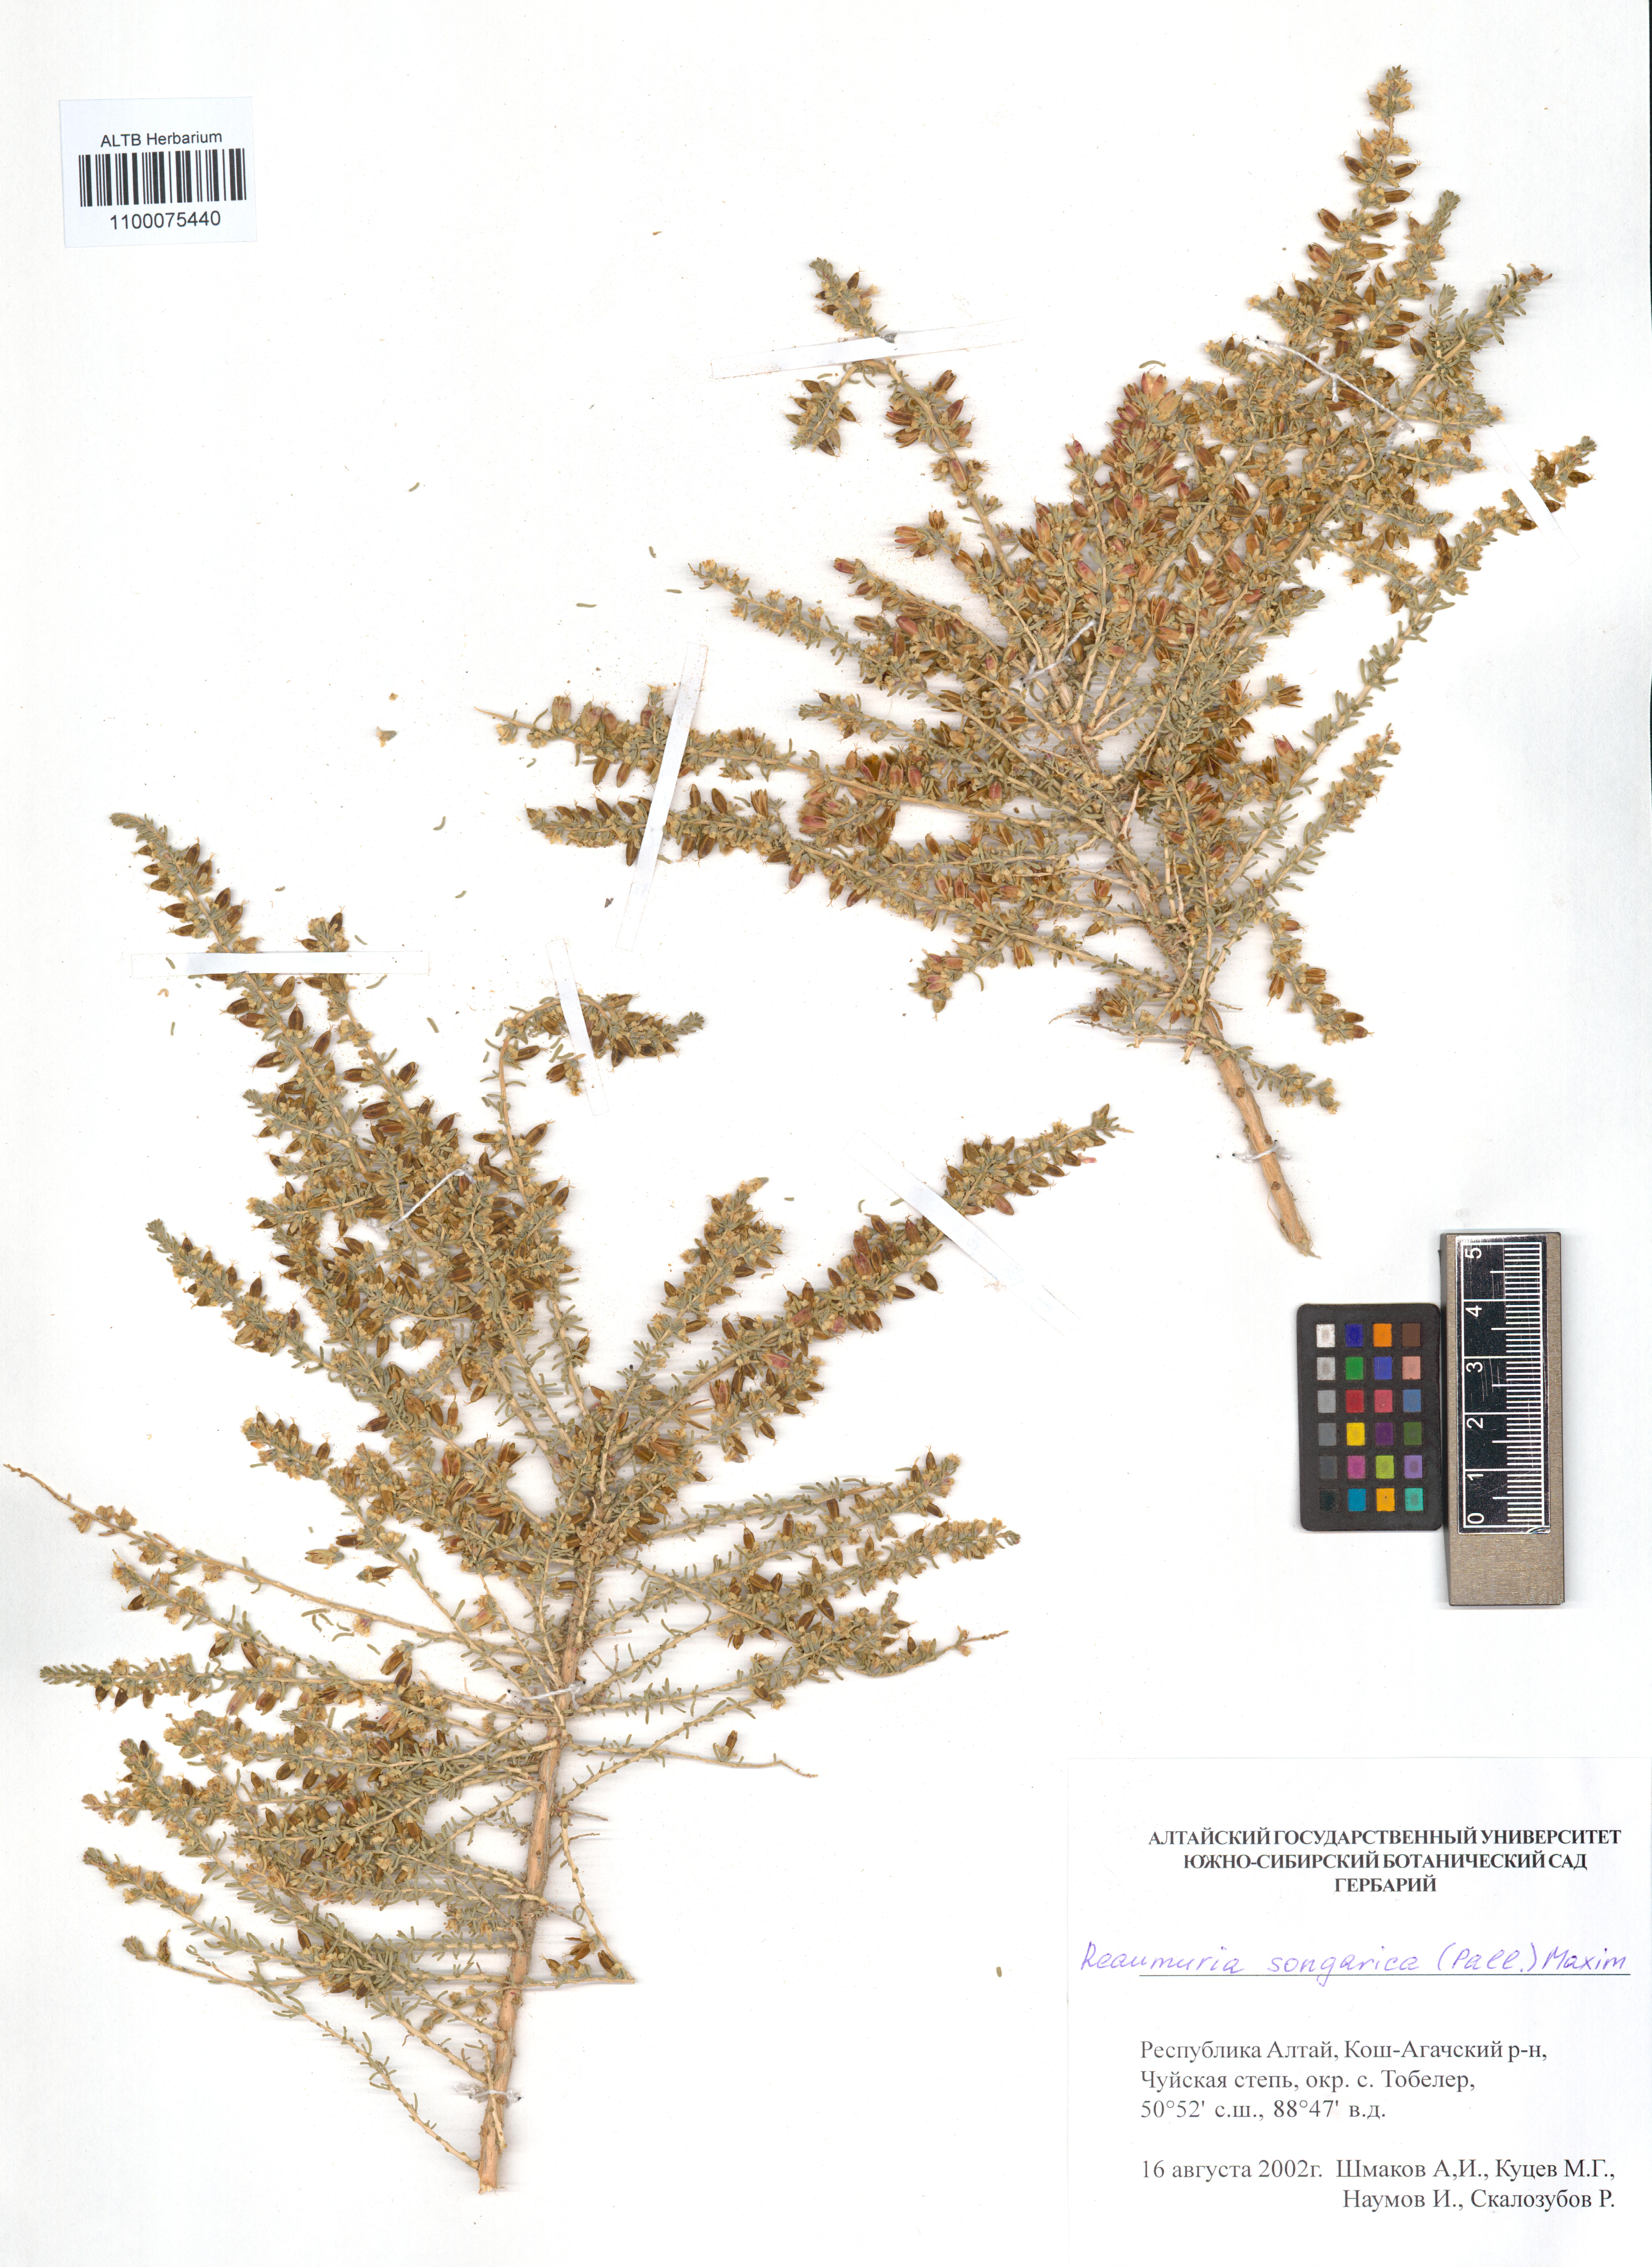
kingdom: Plantae
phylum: Tracheophyta
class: Magnoliopsida
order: Caryophyllales
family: Tamaricaceae
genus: Reaumuria
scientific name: Reaumuria songarica
